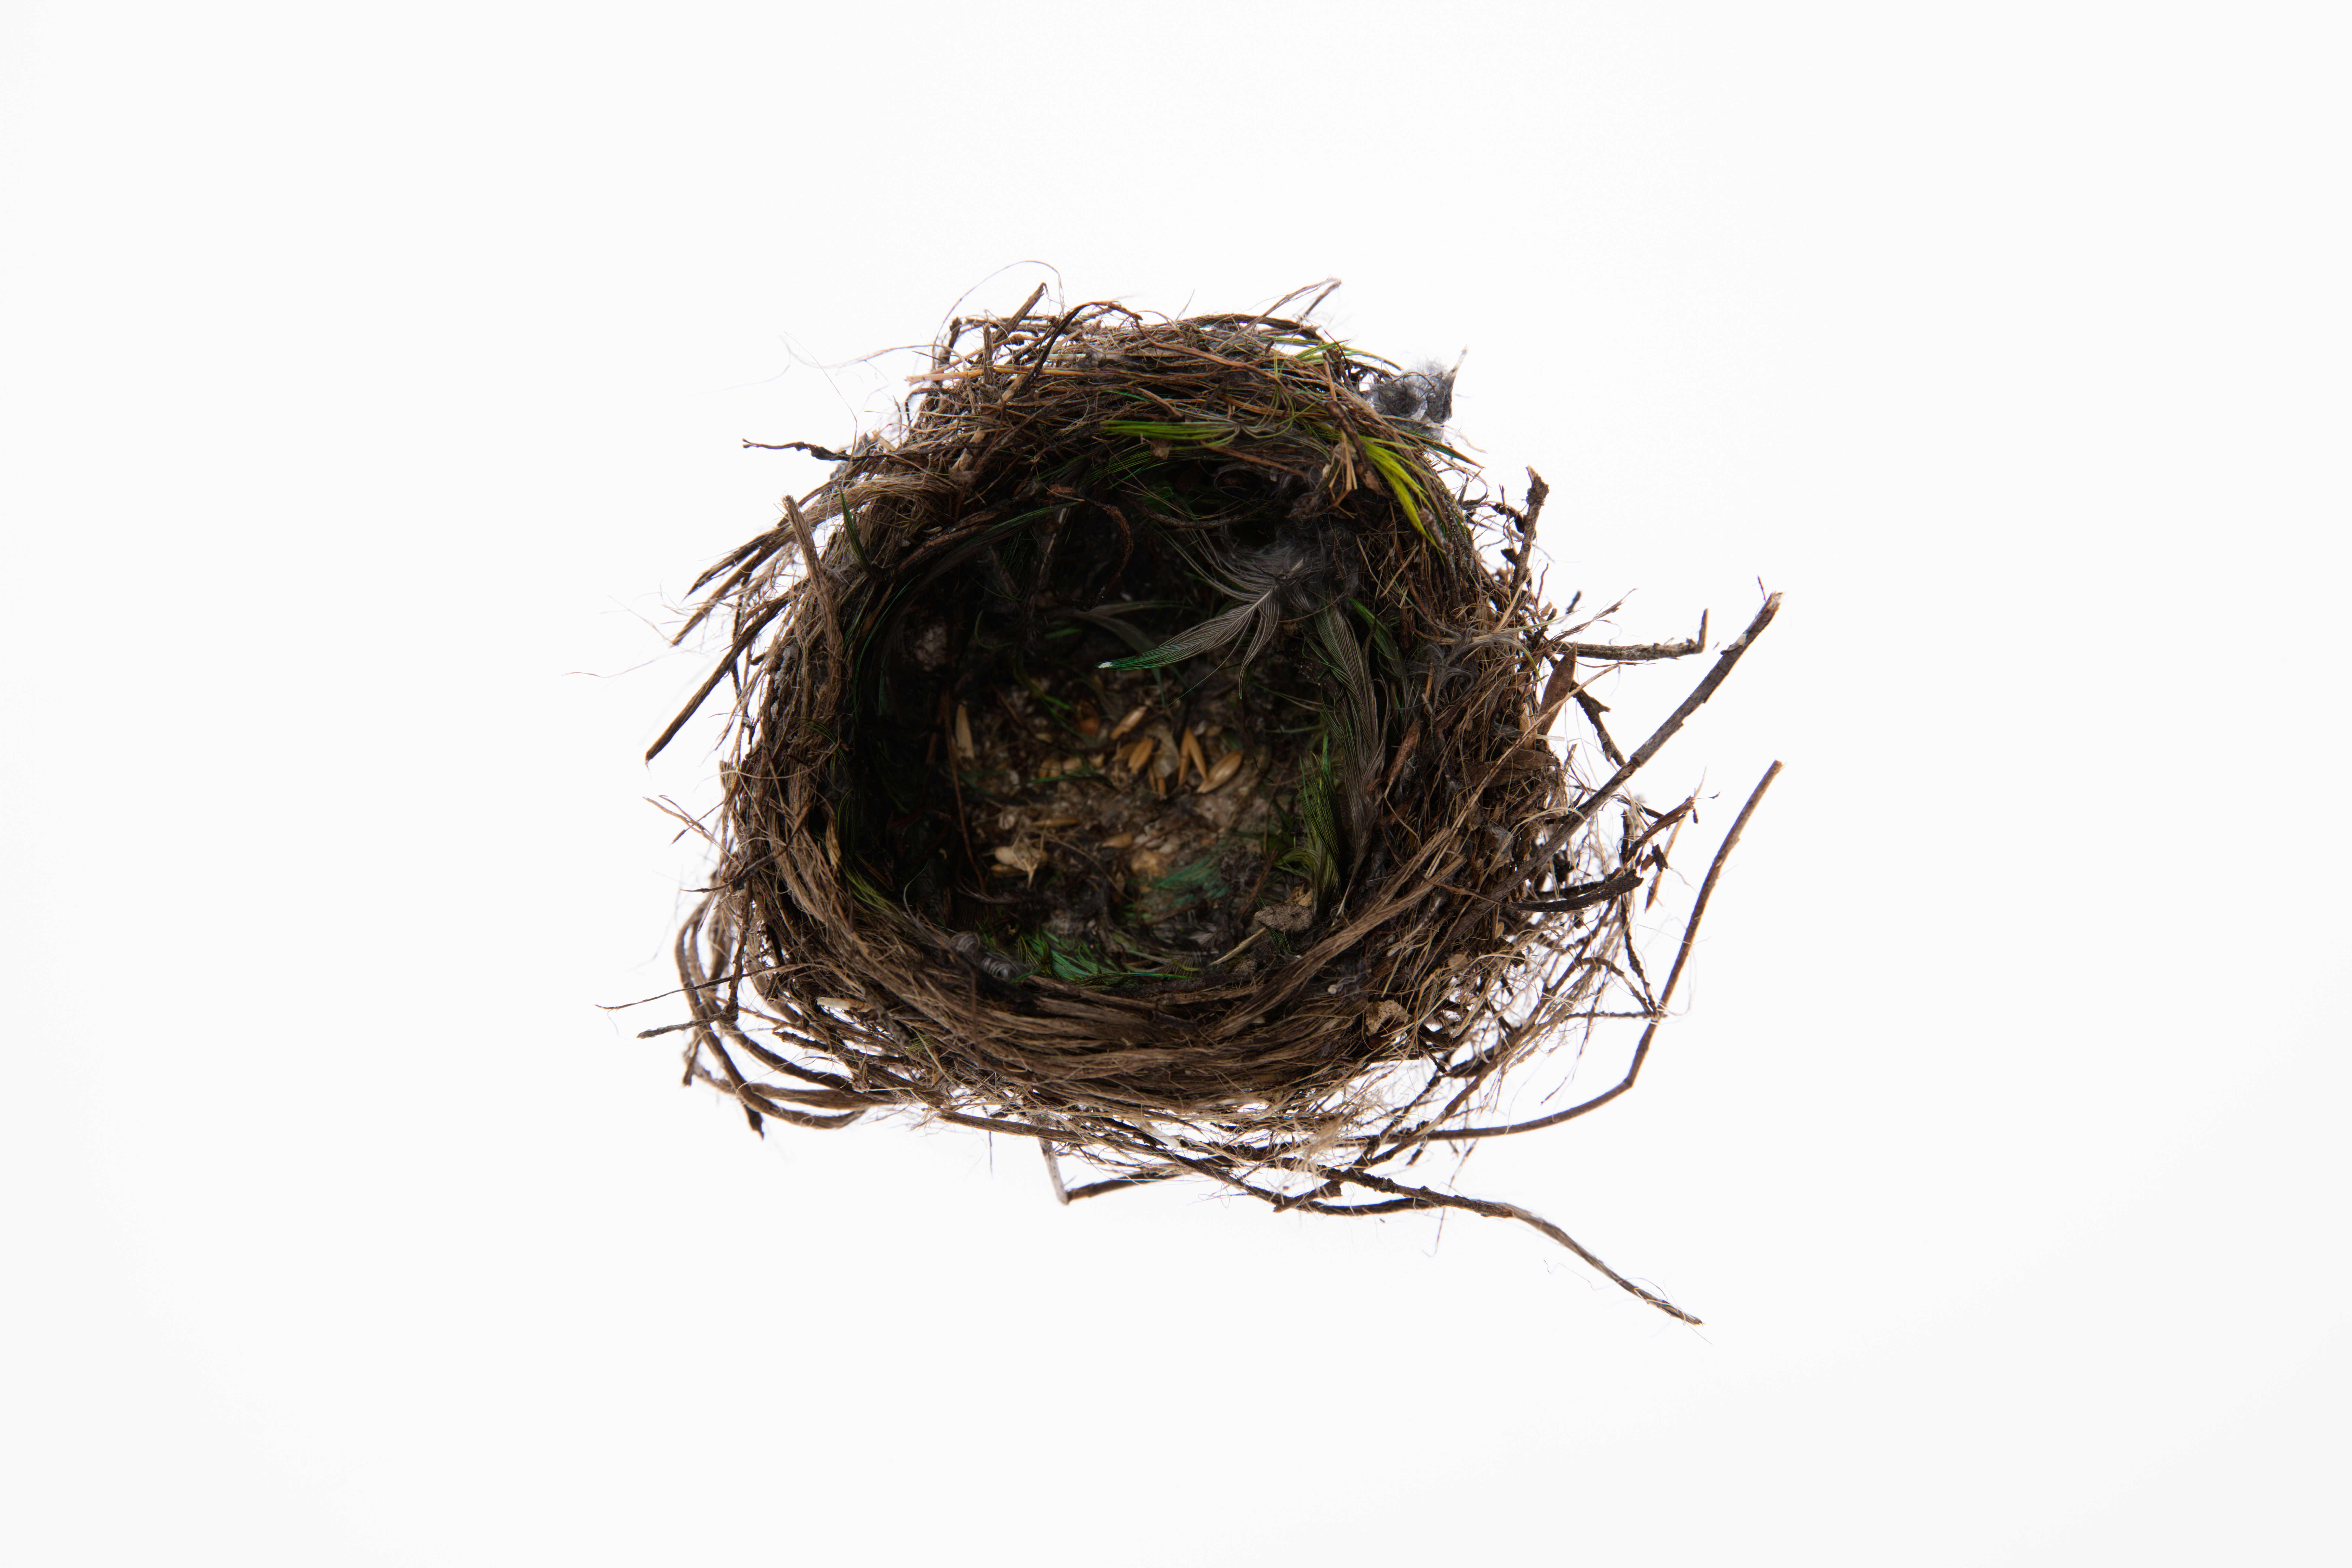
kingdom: Animalia
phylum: Chordata
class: Aves
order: Passeriformes
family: Fringillidae
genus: Acanthis
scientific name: Acanthis flammea
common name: Common redpoll
